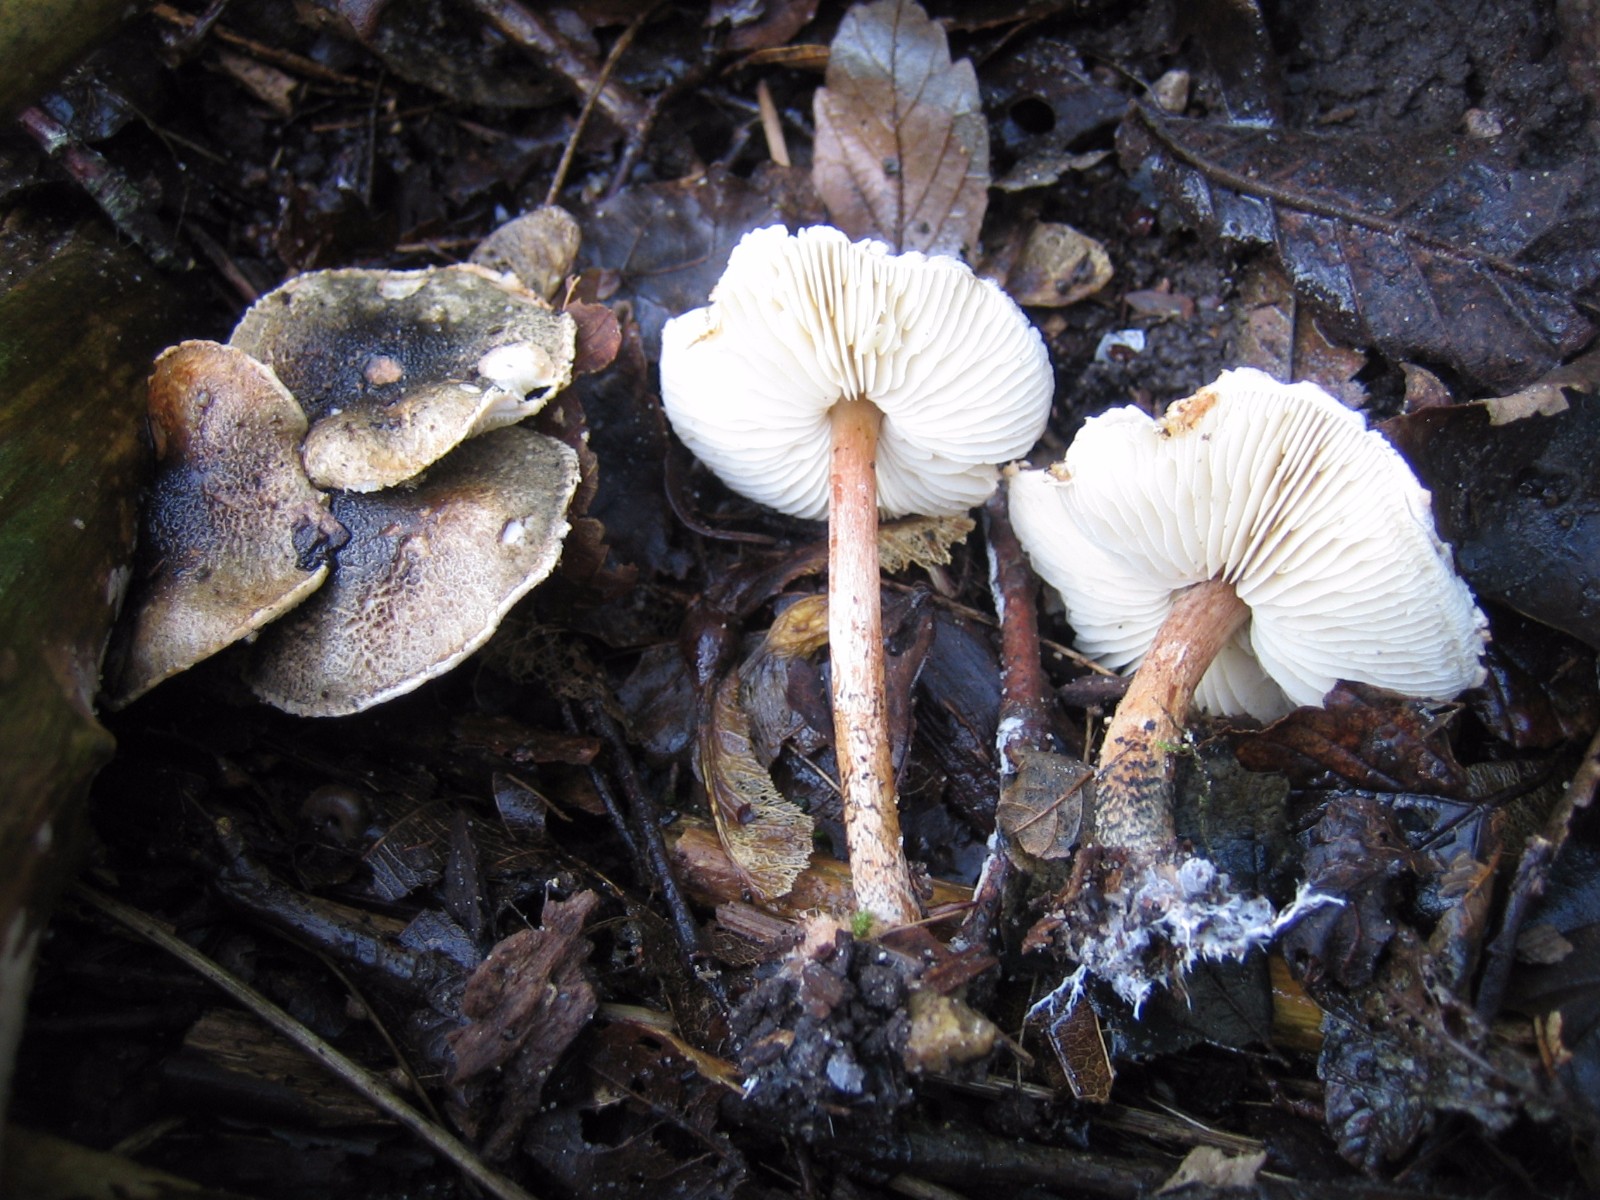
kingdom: Fungi
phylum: Basidiomycota
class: Agaricomycetes
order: Agaricales
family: Agaricaceae
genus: Lepiota
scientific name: Lepiota grangei
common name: grønskællet parasolhat
